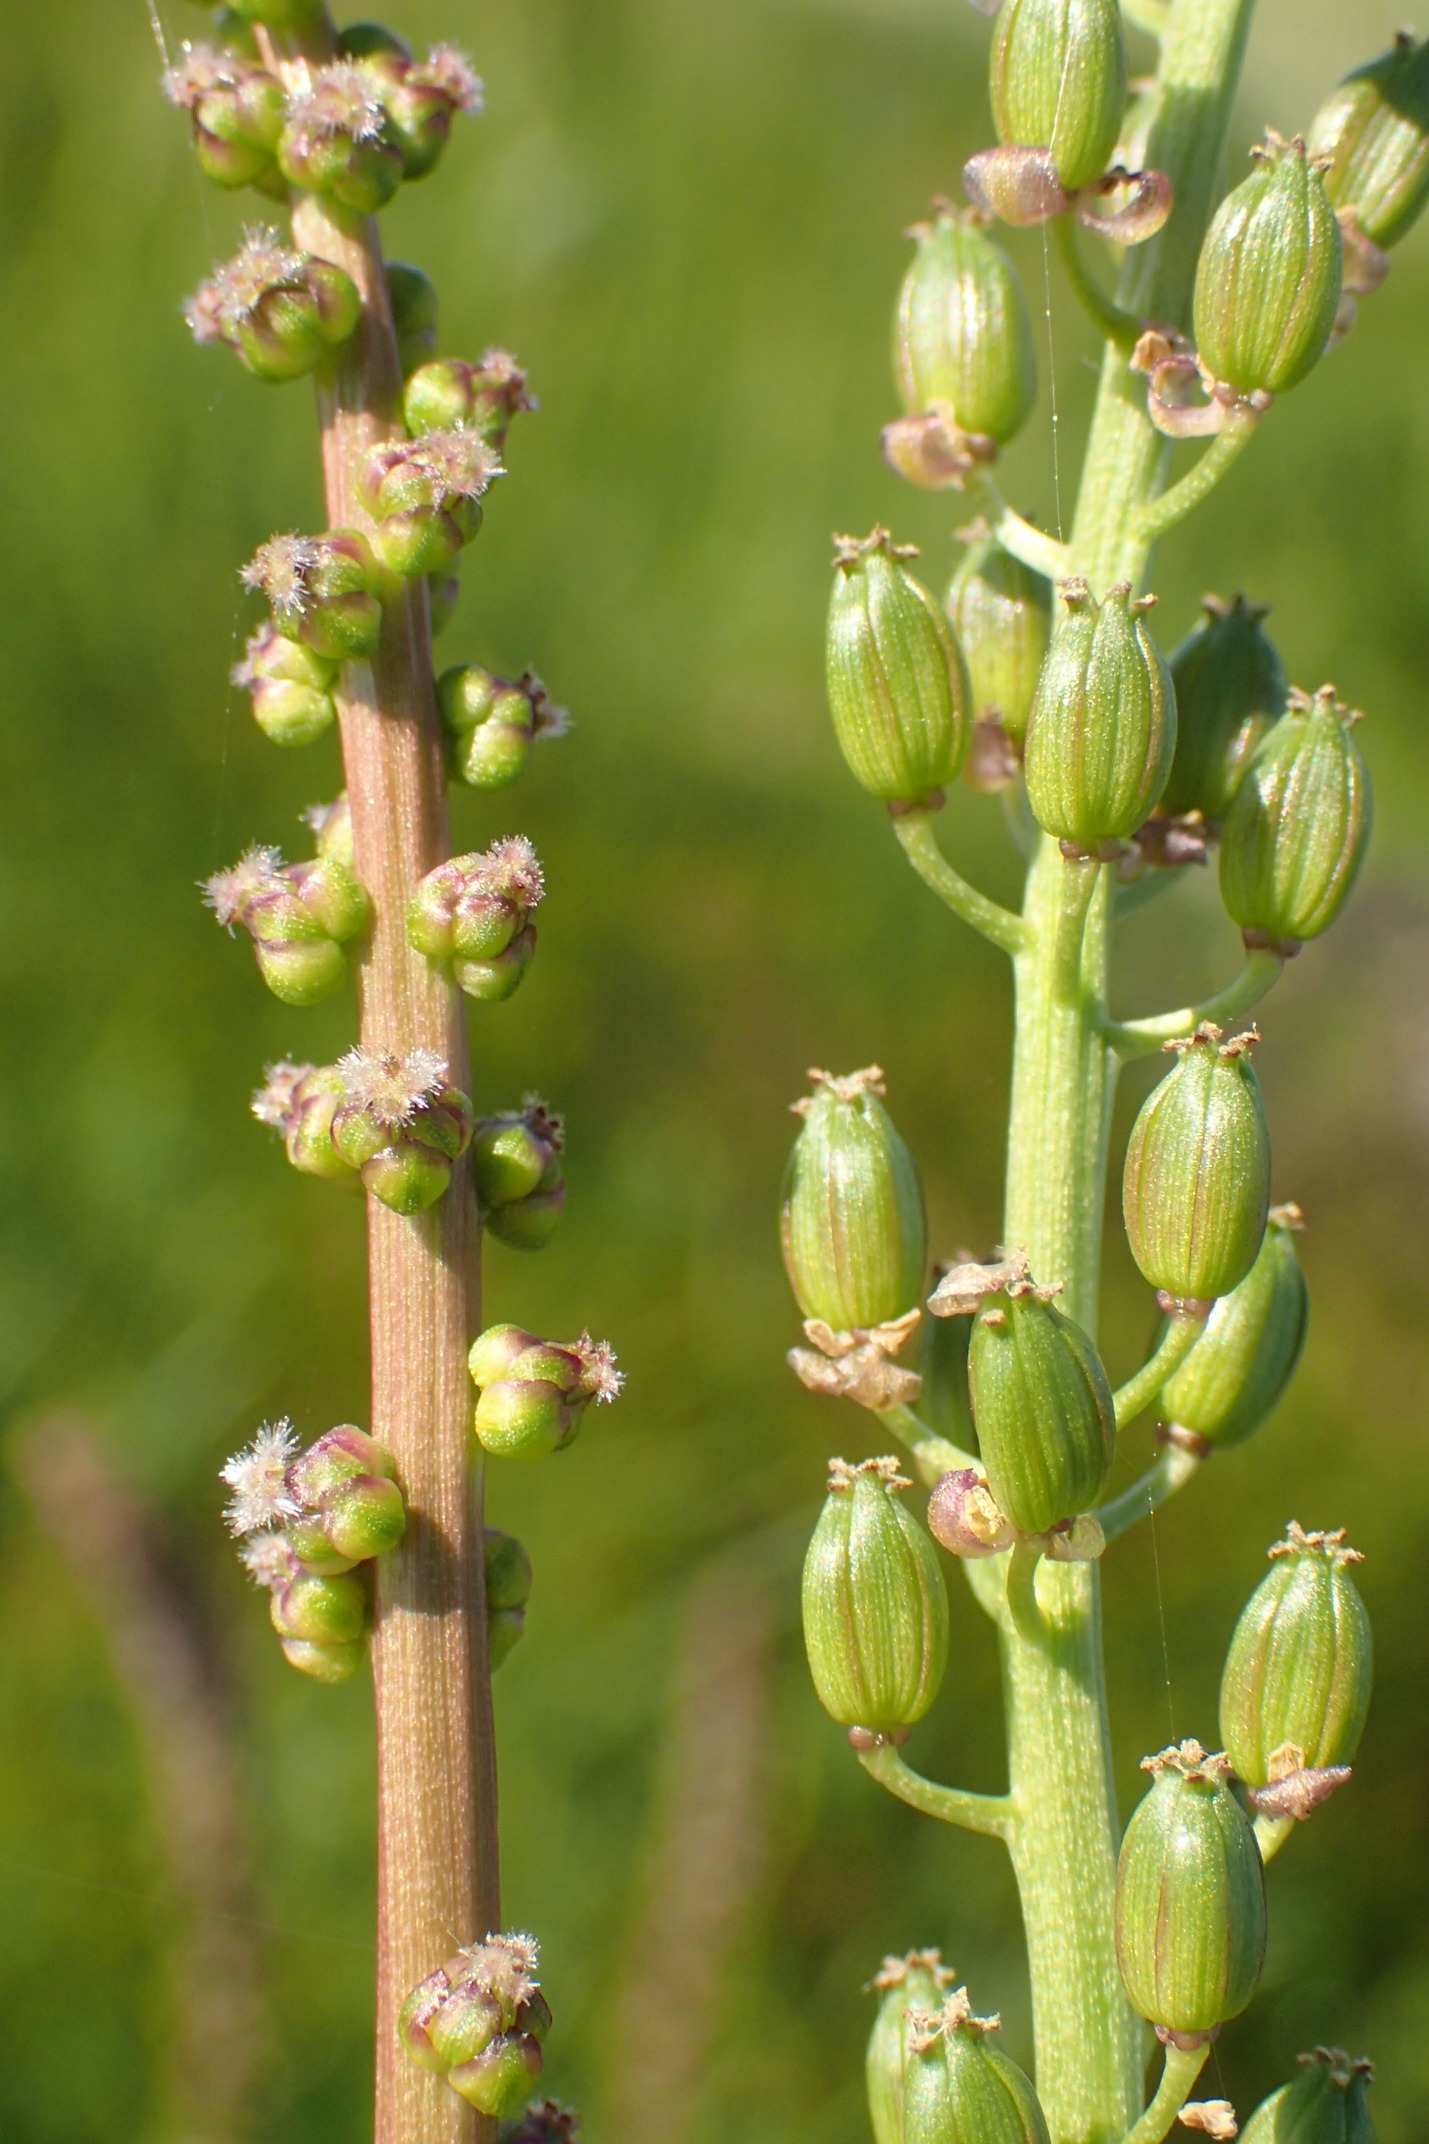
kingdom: Plantae
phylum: Tracheophyta
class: Liliopsida
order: Alismatales
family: Juncaginaceae
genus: Triglochin
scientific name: Triglochin maritima
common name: Strand-trehage
